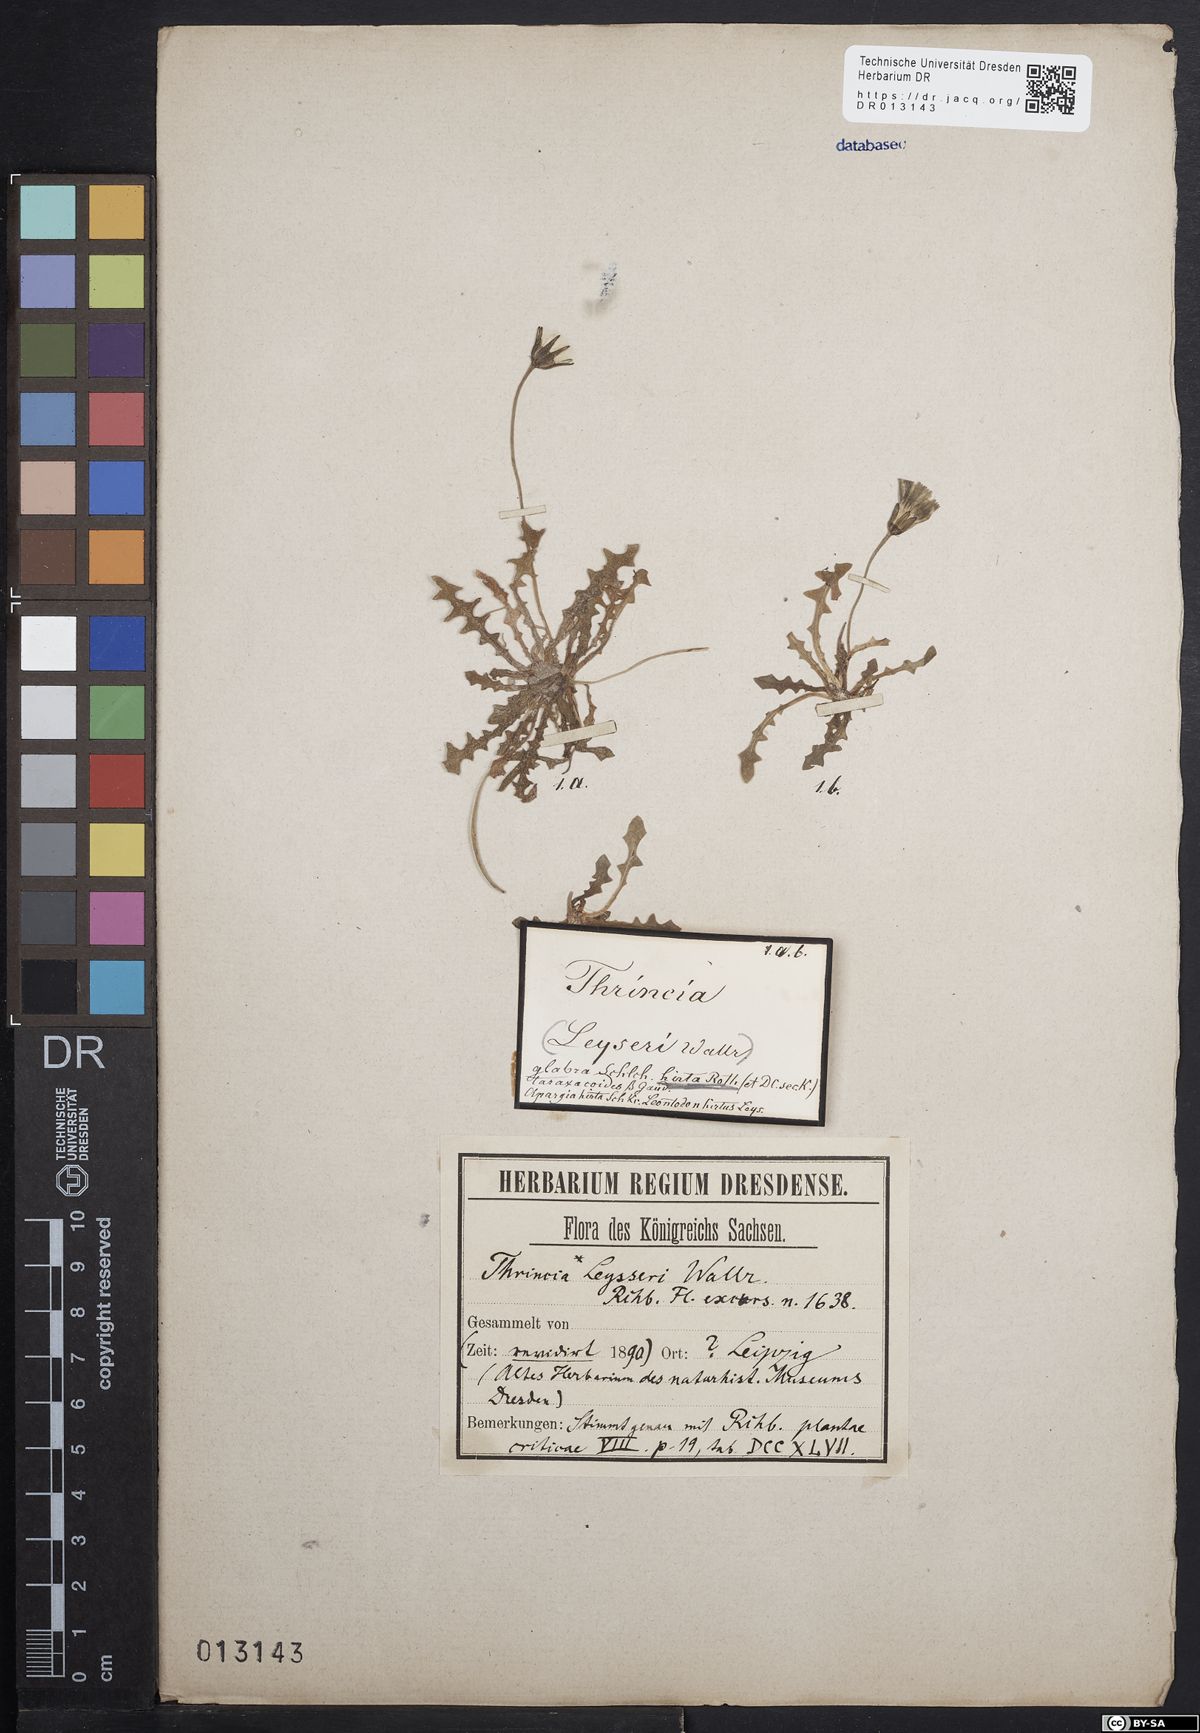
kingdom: Plantae
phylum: Tracheophyta
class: Magnoliopsida
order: Asterales
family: Asteraceae
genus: Thrincia
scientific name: Thrincia saxatilis
